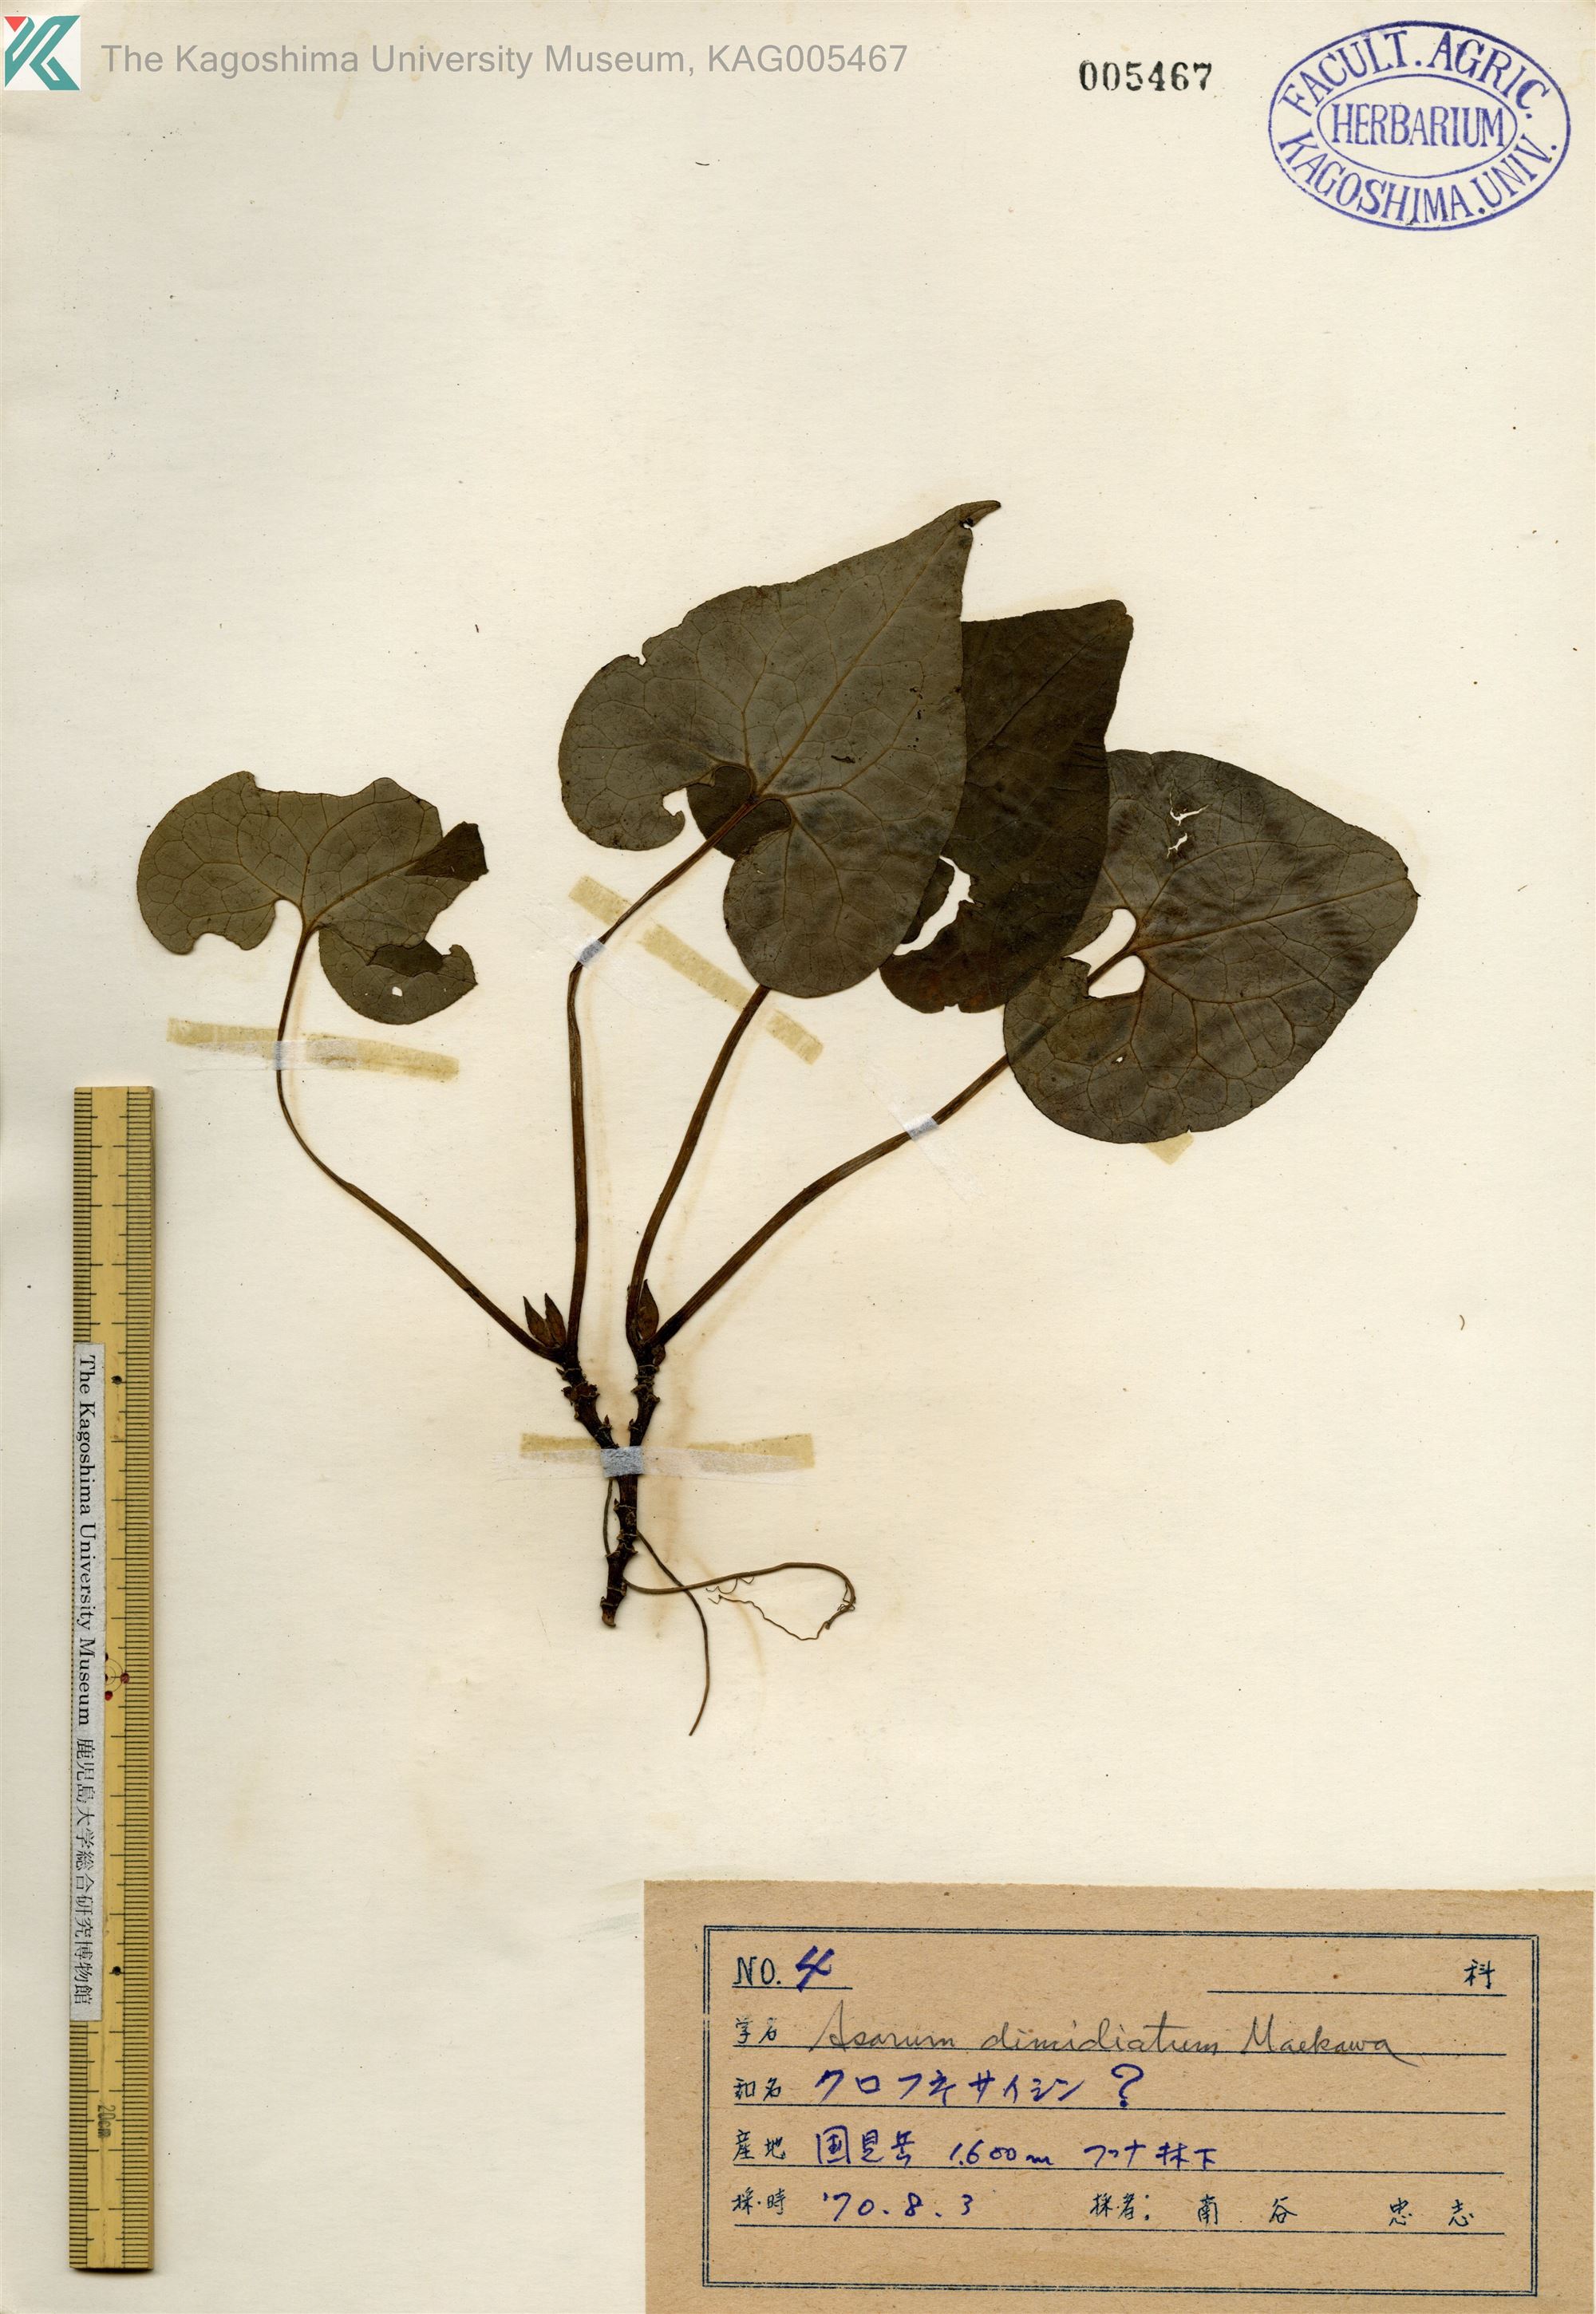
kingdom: Plantae
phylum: Tracheophyta
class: Magnoliopsida
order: Piperales
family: Aristolochiaceae
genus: Asarum
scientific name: Asarum sieboldii
